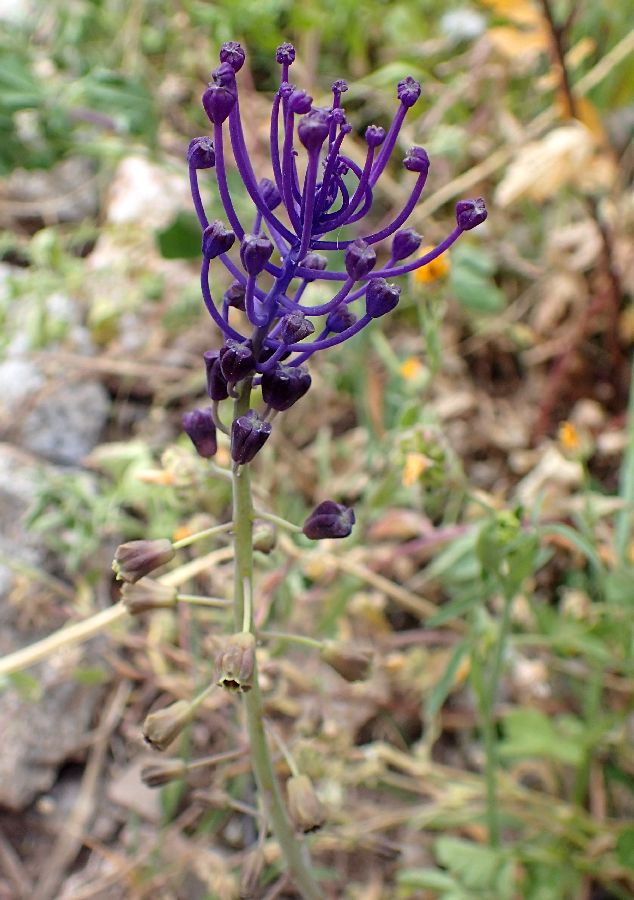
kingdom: Plantae
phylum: Tracheophyta
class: Liliopsida
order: Asparagales
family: Asparagaceae
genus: Muscari
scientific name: Muscari comosum
